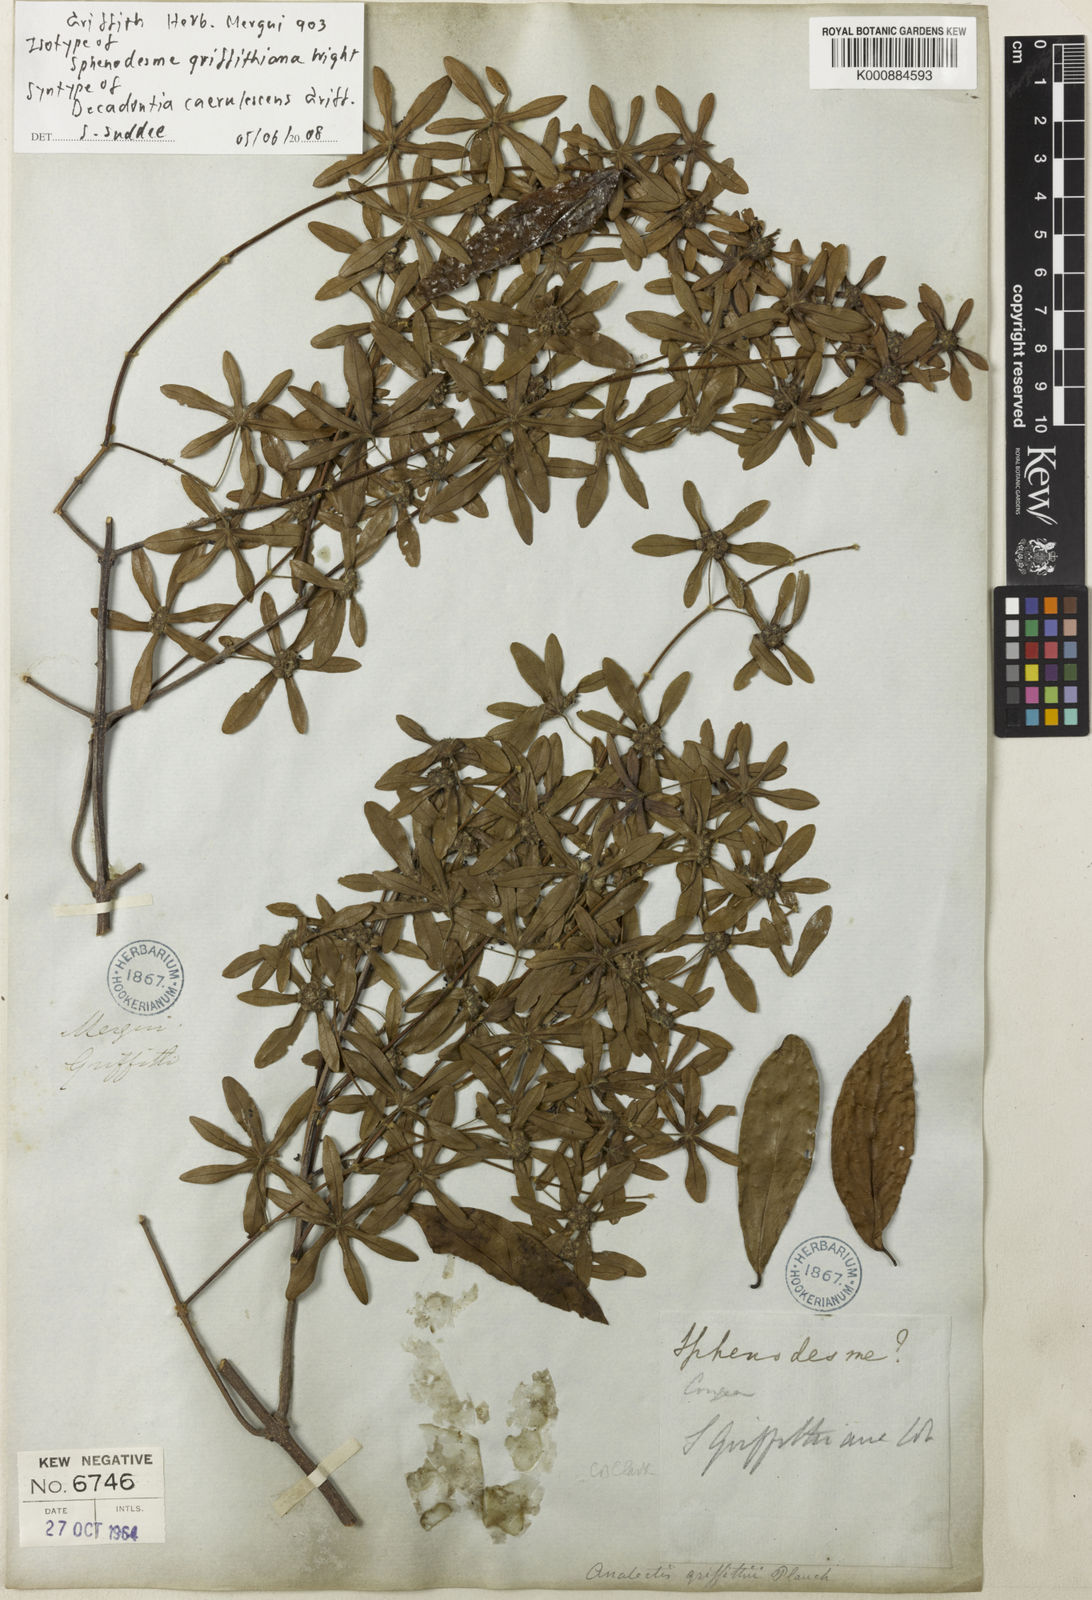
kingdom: Plantae
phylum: Tracheophyta
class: Magnoliopsida
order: Lamiales
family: Lamiaceae
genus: Sphenodesme
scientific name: Sphenodesme griffithiana
